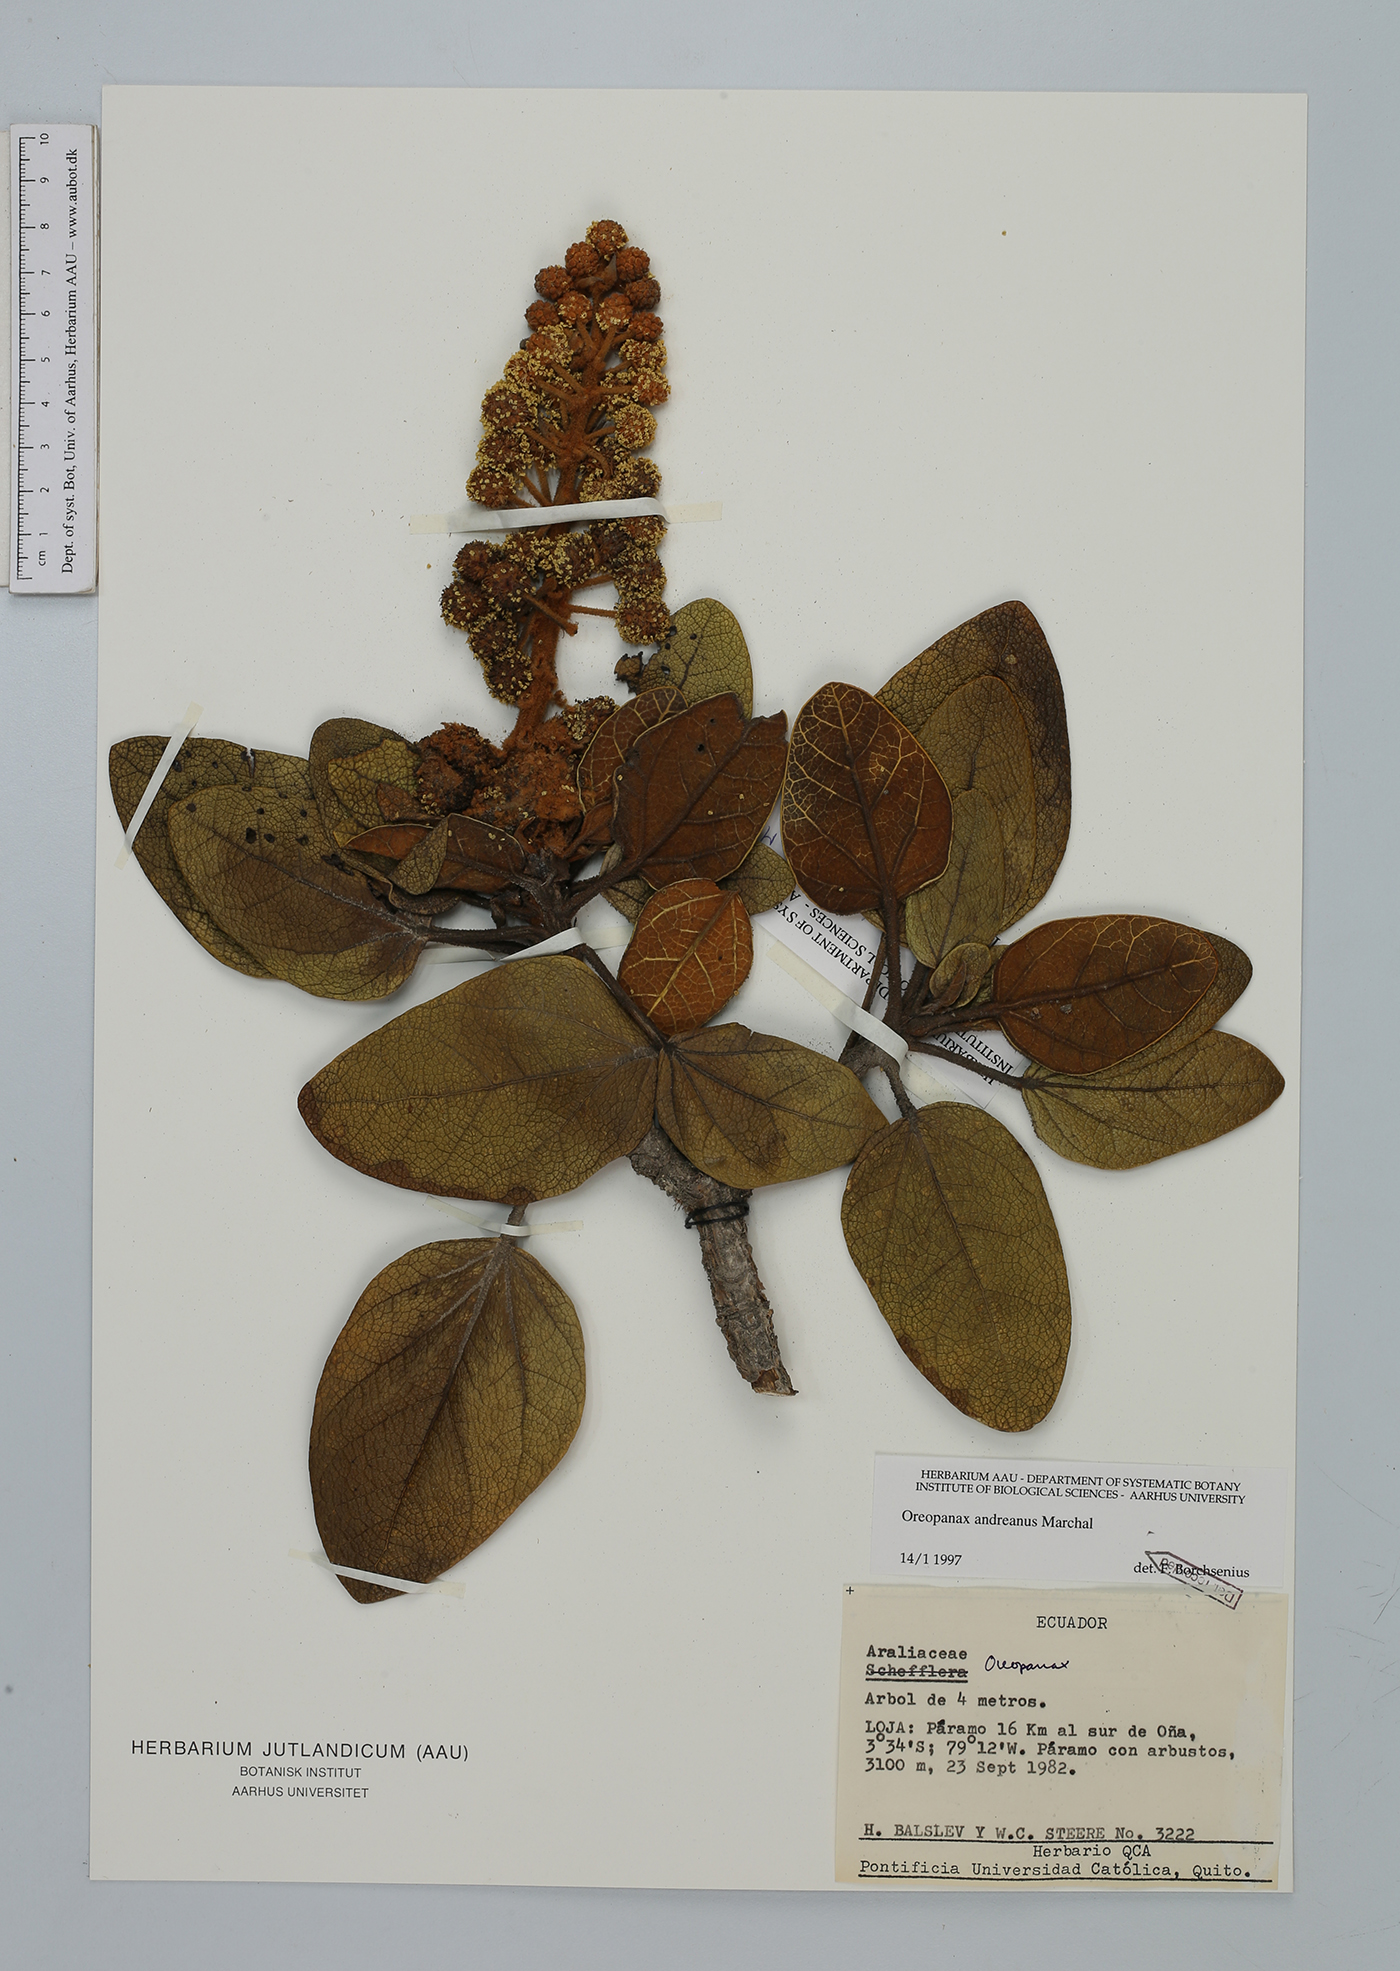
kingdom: Plantae
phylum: Tracheophyta
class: Magnoliopsida
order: Apiales
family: Araliaceae
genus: Oreopanax
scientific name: Oreopanax andreanus
